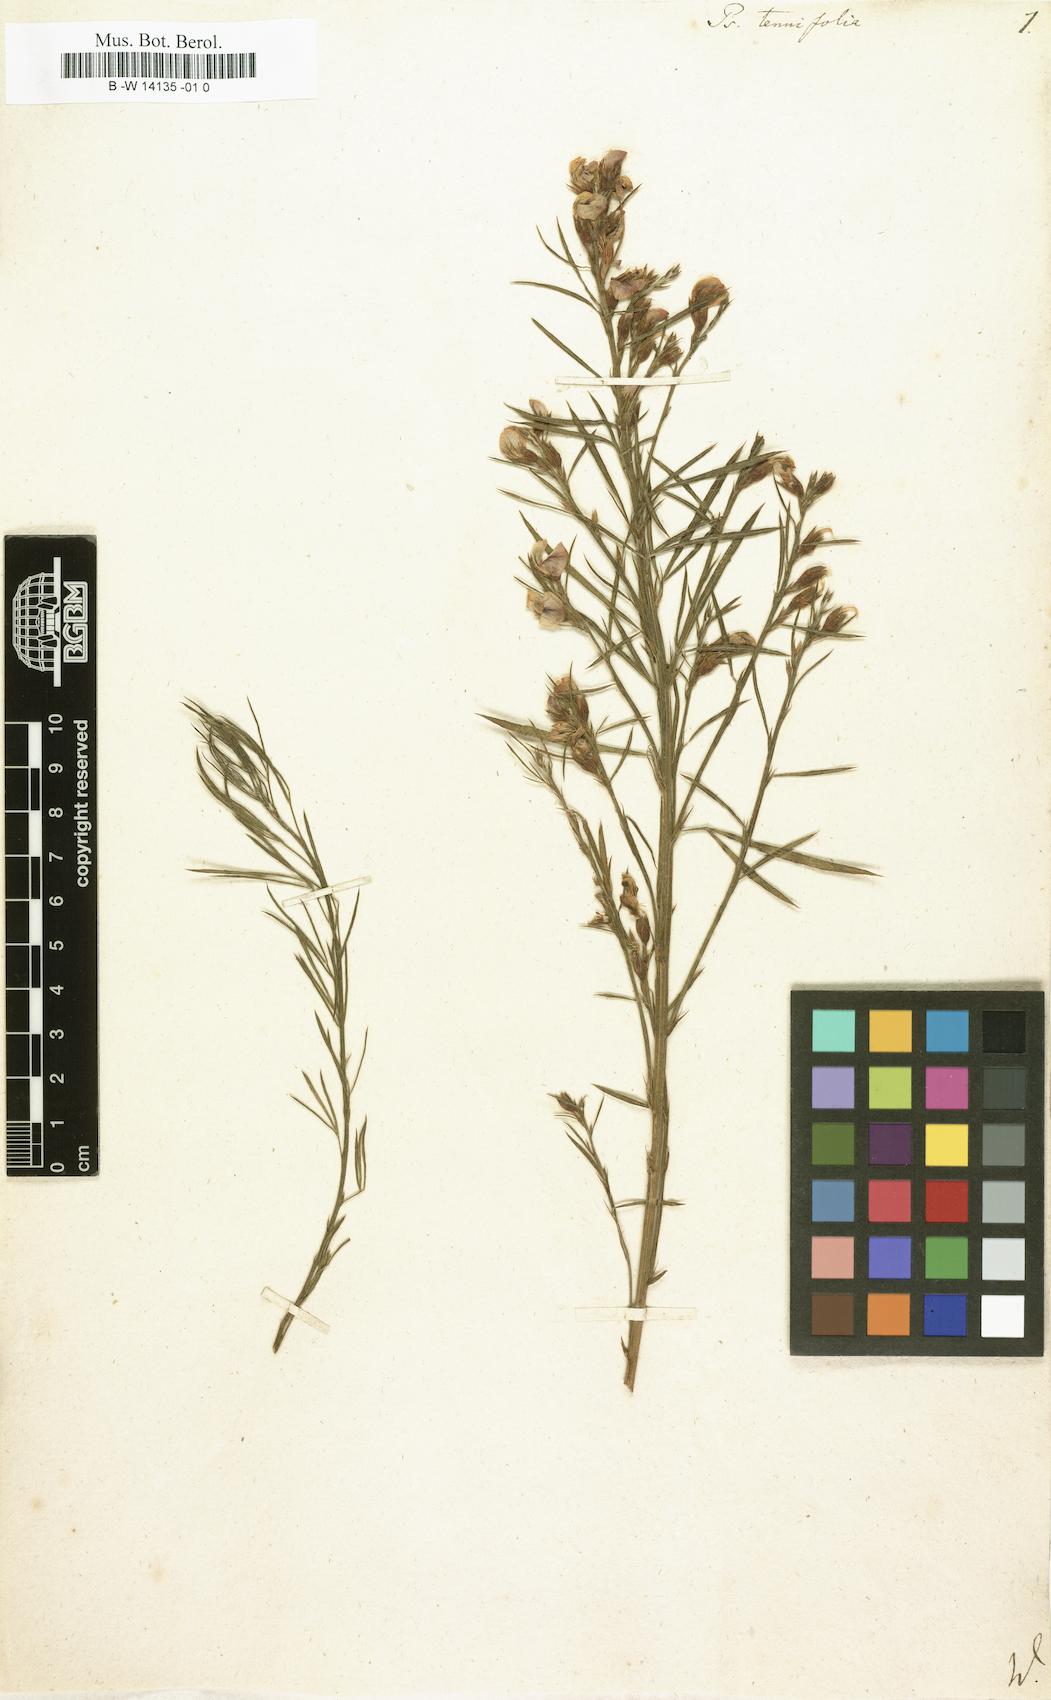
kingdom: Plantae
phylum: Tracheophyta
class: Magnoliopsida
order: Fabales
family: Fabaceae
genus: Psoralea
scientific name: Psoralea tenuifolia
